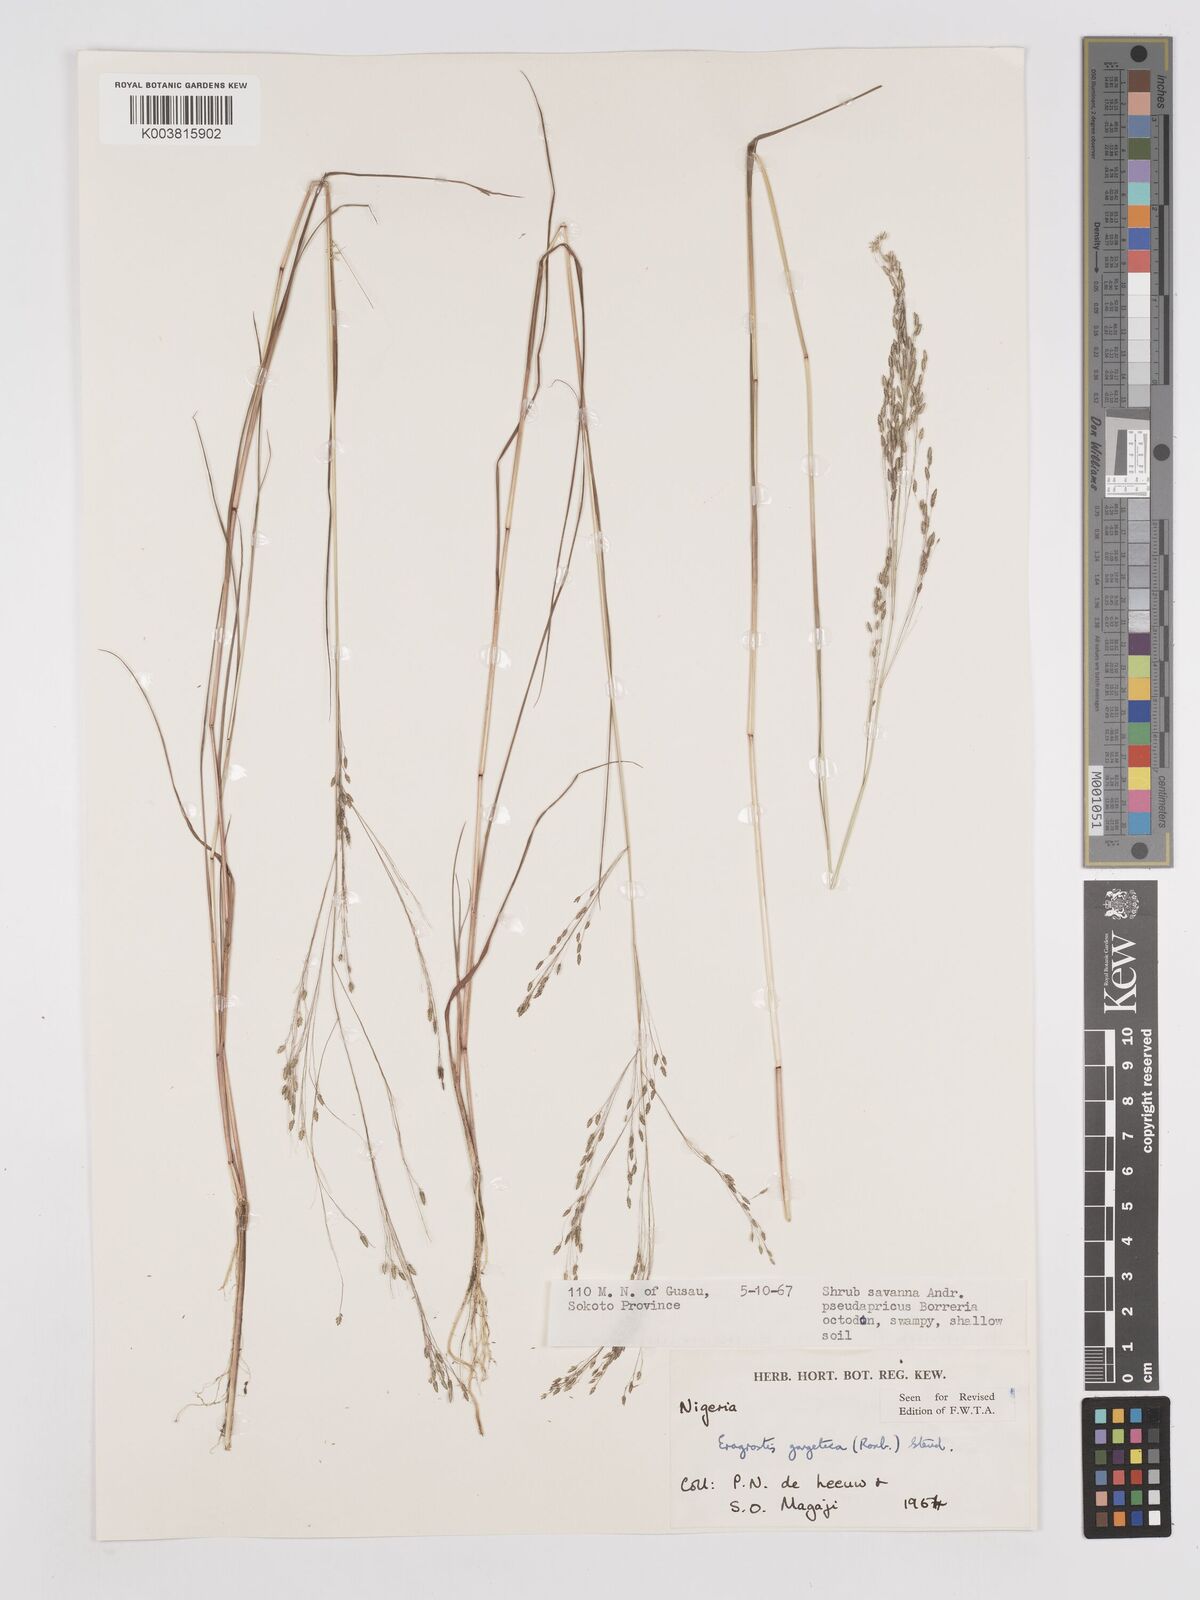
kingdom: Plantae
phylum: Tracheophyta
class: Liliopsida
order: Poales
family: Poaceae
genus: Eragrostis
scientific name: Eragrostis gangetica
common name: Slimflower lovegrass
